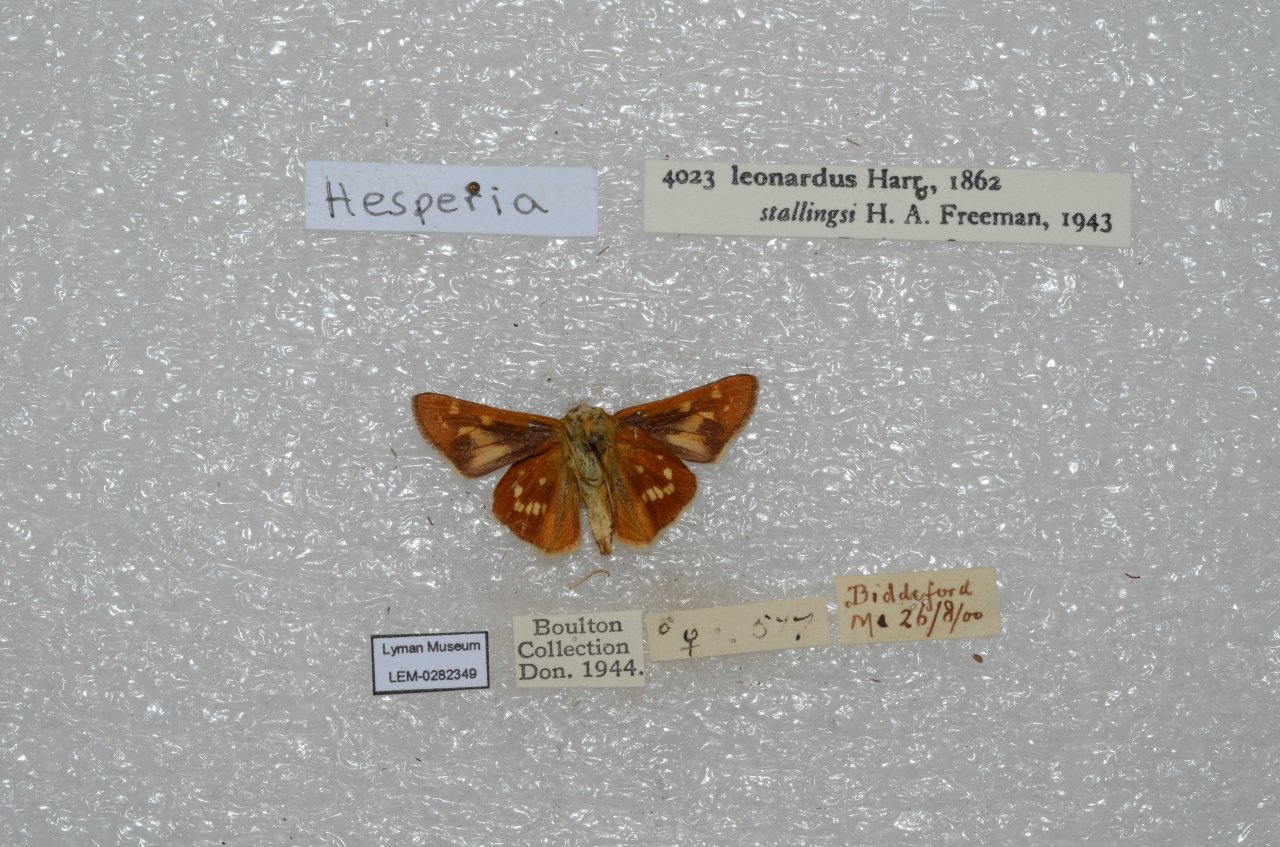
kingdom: Animalia
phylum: Arthropoda
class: Insecta
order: Lepidoptera
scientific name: Lepidoptera
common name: Butterflies
